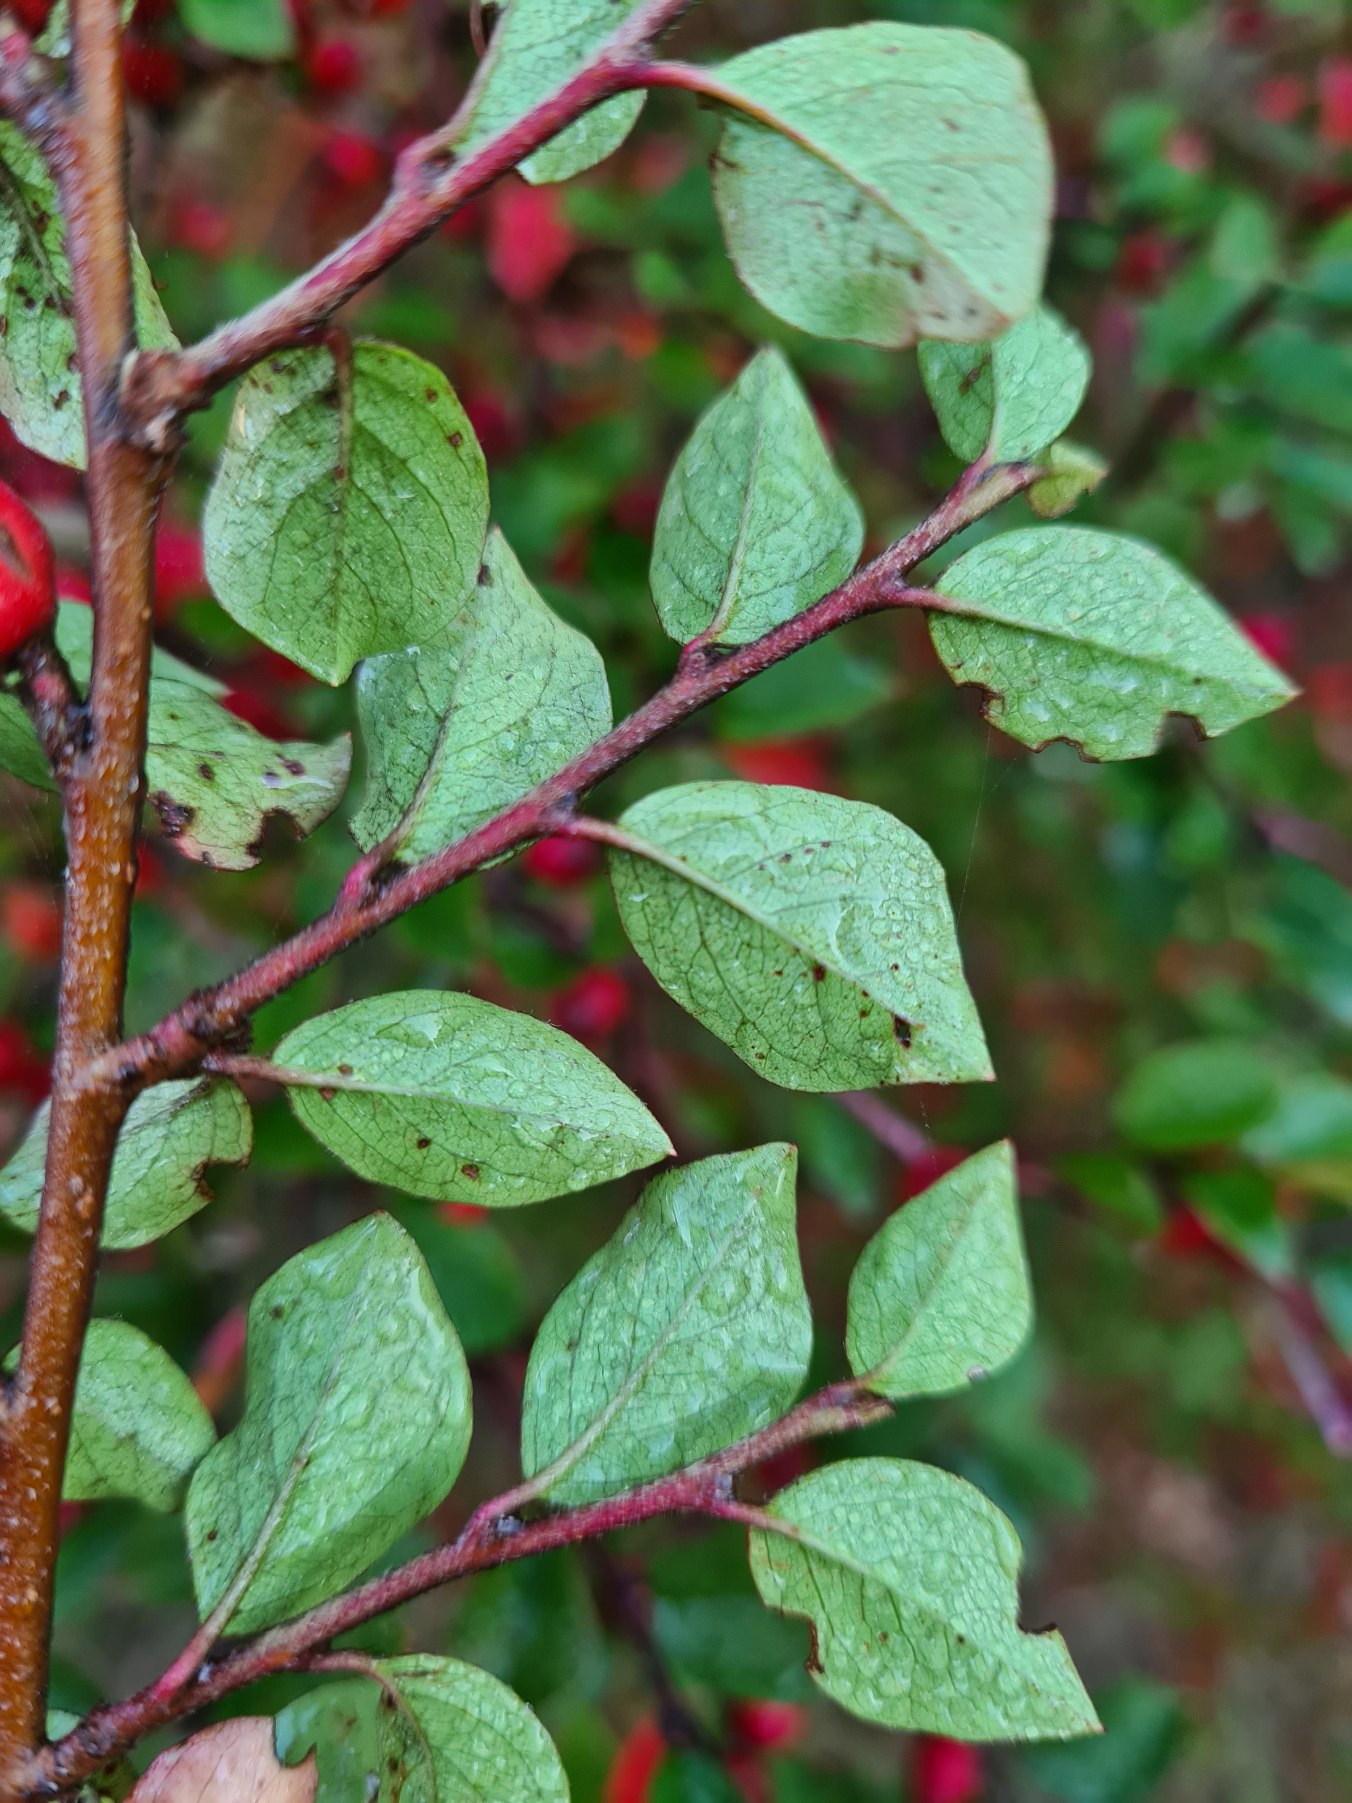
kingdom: Plantae
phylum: Tracheophyta
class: Magnoliopsida
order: Rosales
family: Rosaceae
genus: Cotoneaster
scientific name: Cotoneaster divaricatus
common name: Vifte-dværgmispel
